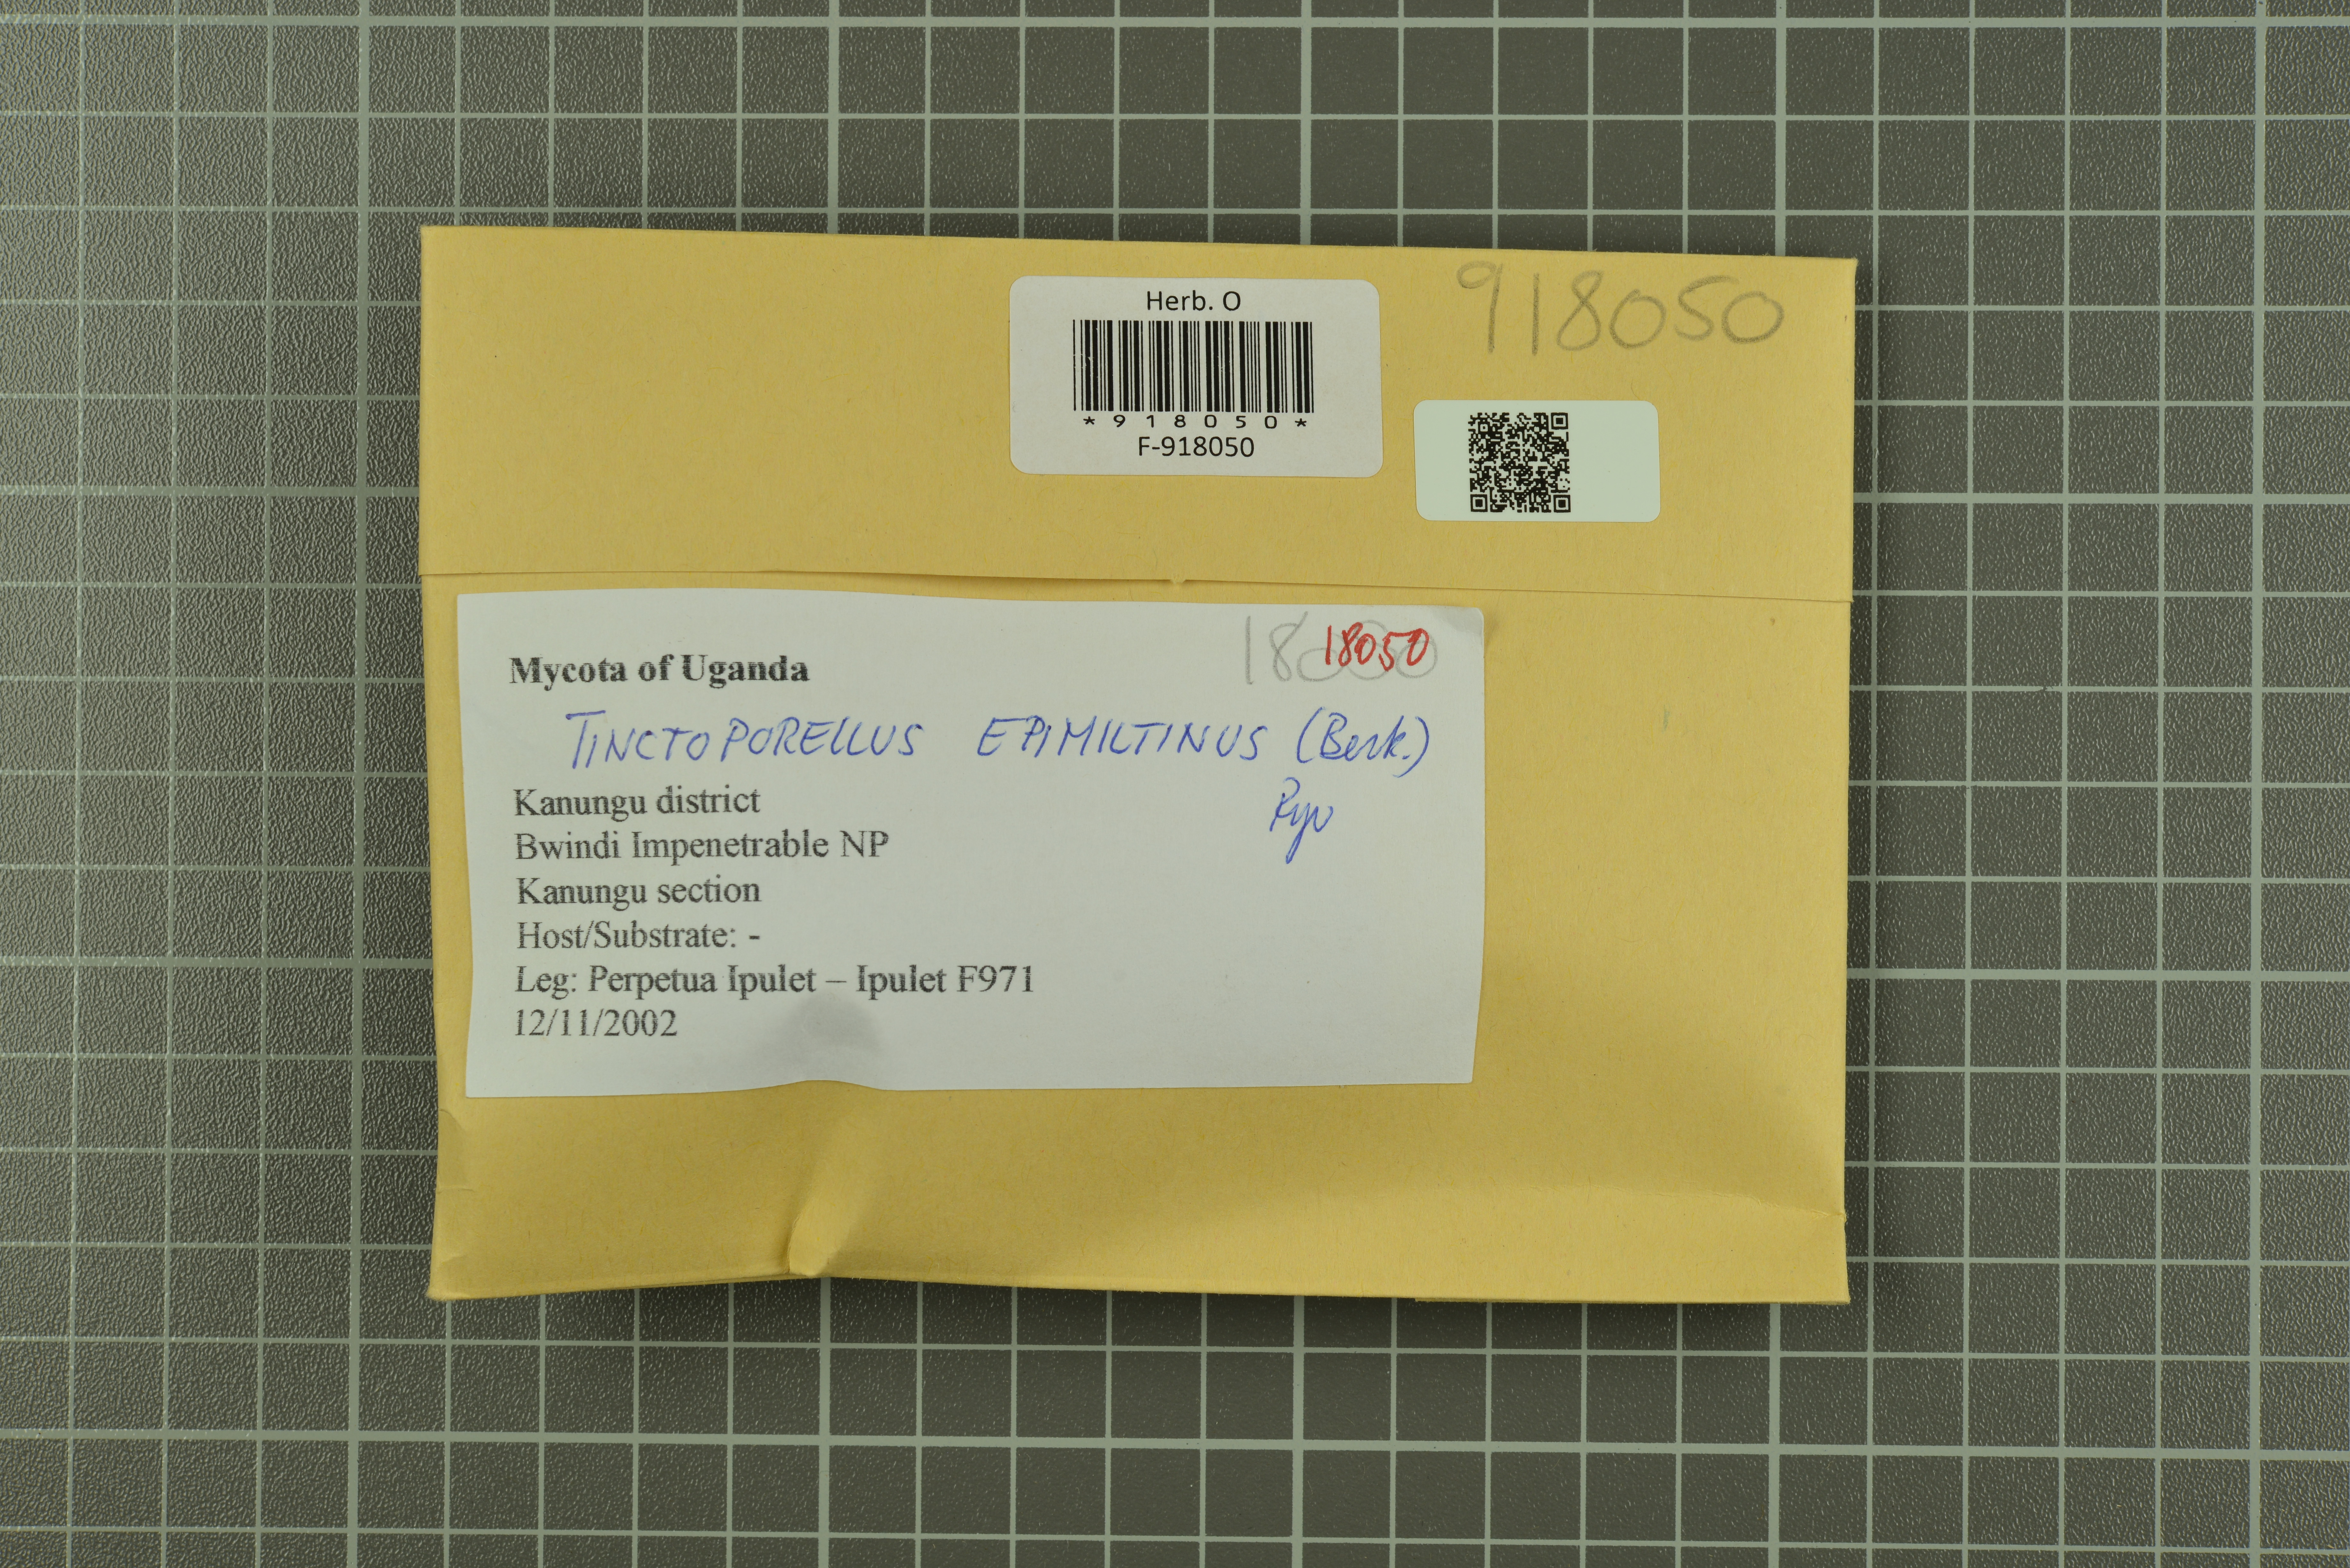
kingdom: Fungi
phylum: Basidiomycota
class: Agaricomycetes
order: Polyporales
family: Polyporaceae
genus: Tinctoporellus
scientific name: Tinctoporellus epimiltinus
